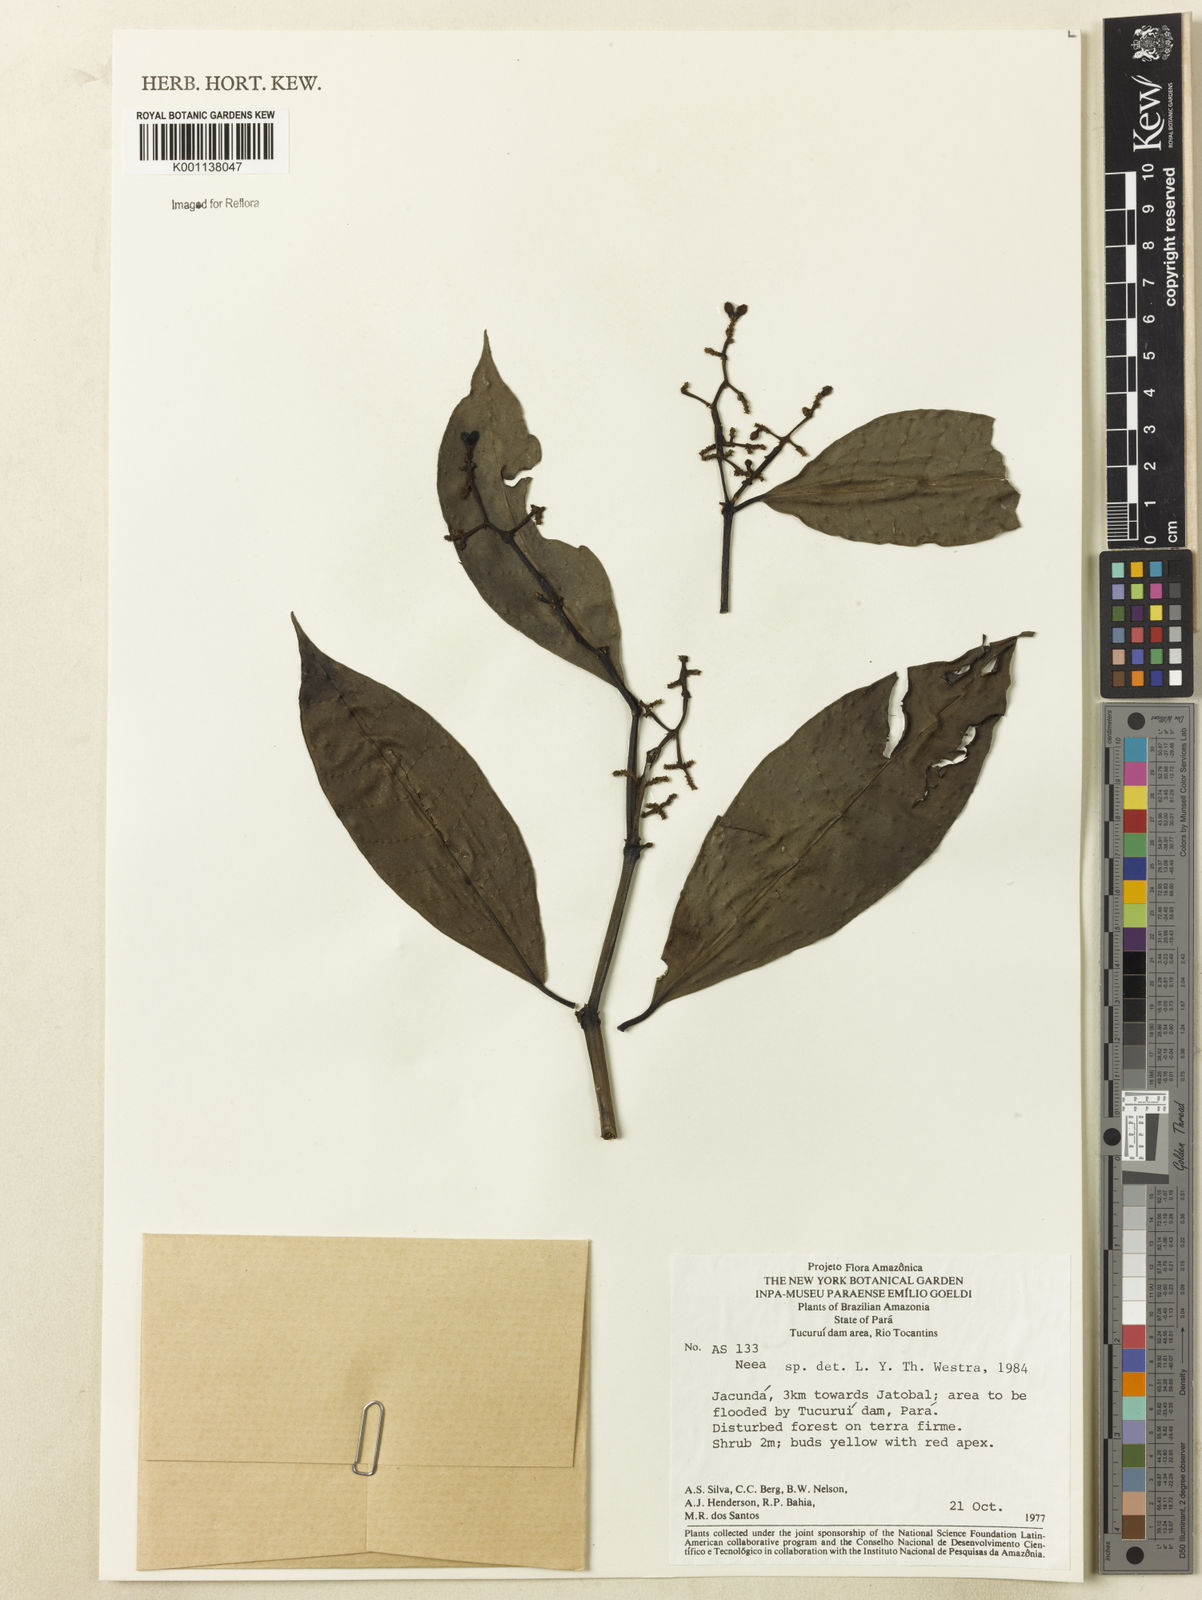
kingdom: Plantae
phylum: Tracheophyta
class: Magnoliopsida
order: Caryophyllales
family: Nyctaginaceae
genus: Neea
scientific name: Neea
